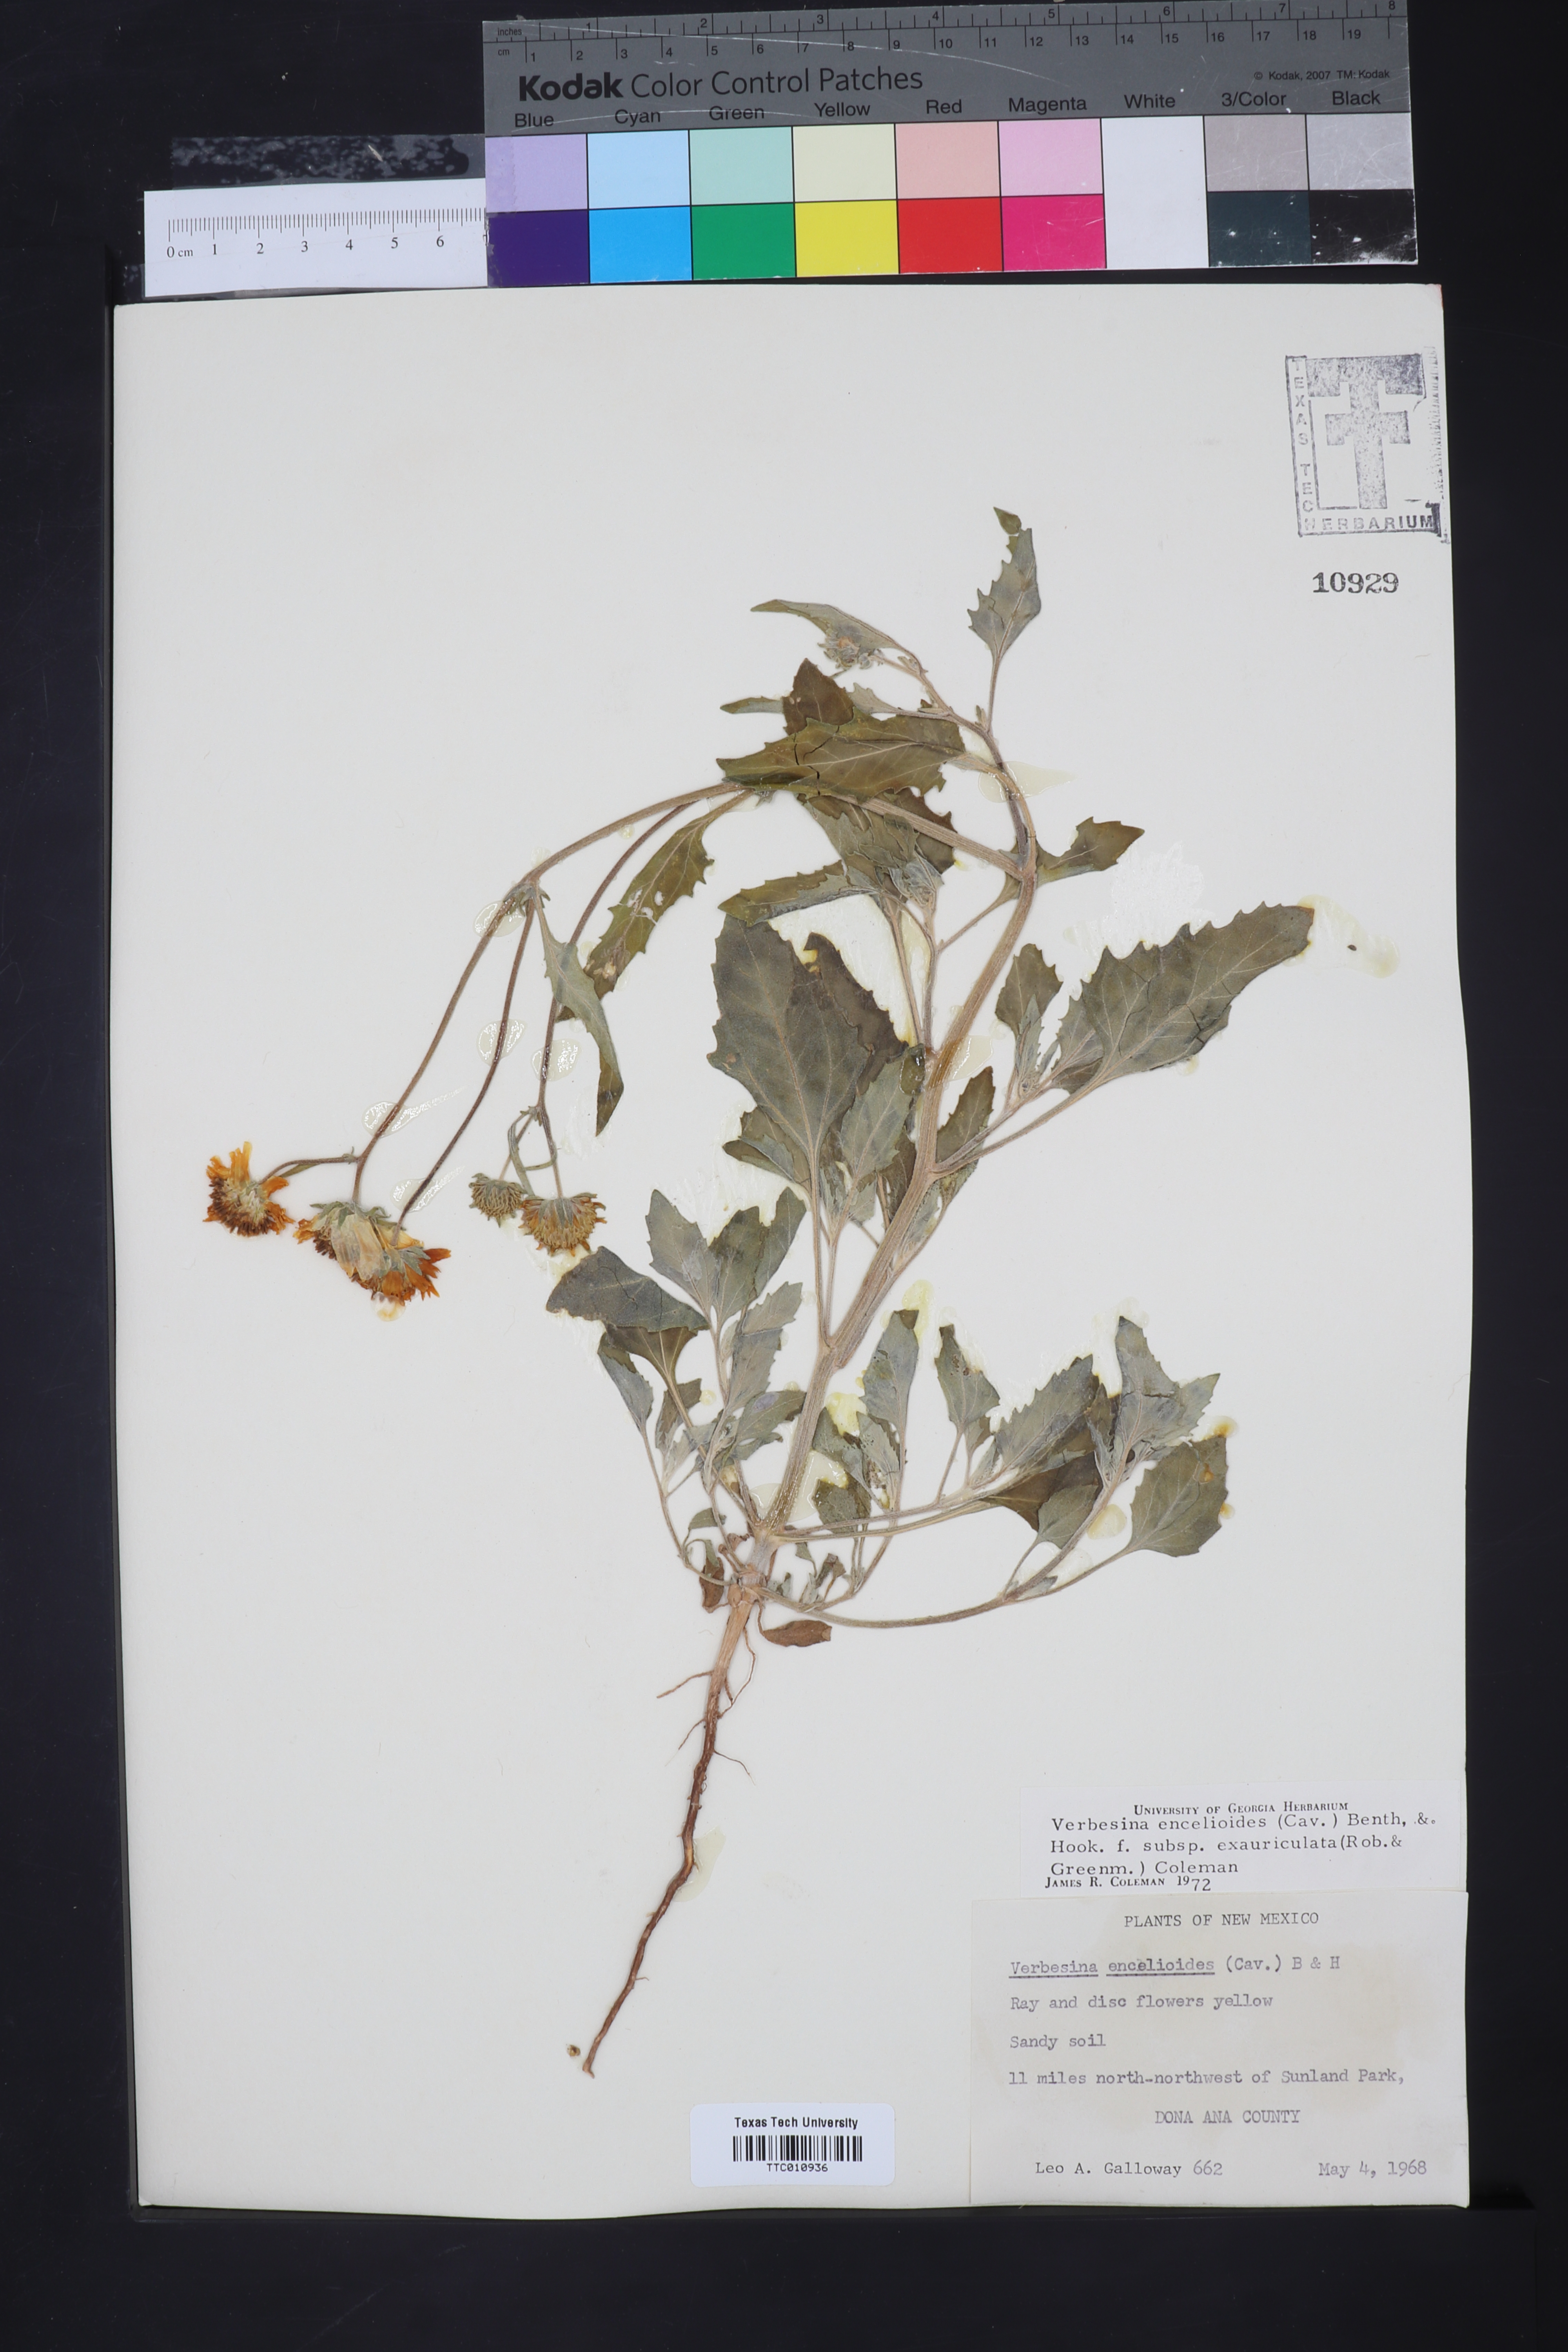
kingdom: Plantae
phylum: Tracheophyta
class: Magnoliopsida
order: Asterales
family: Asteraceae
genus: Verbesina
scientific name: Verbesina encelioides
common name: Golden crownbeard
